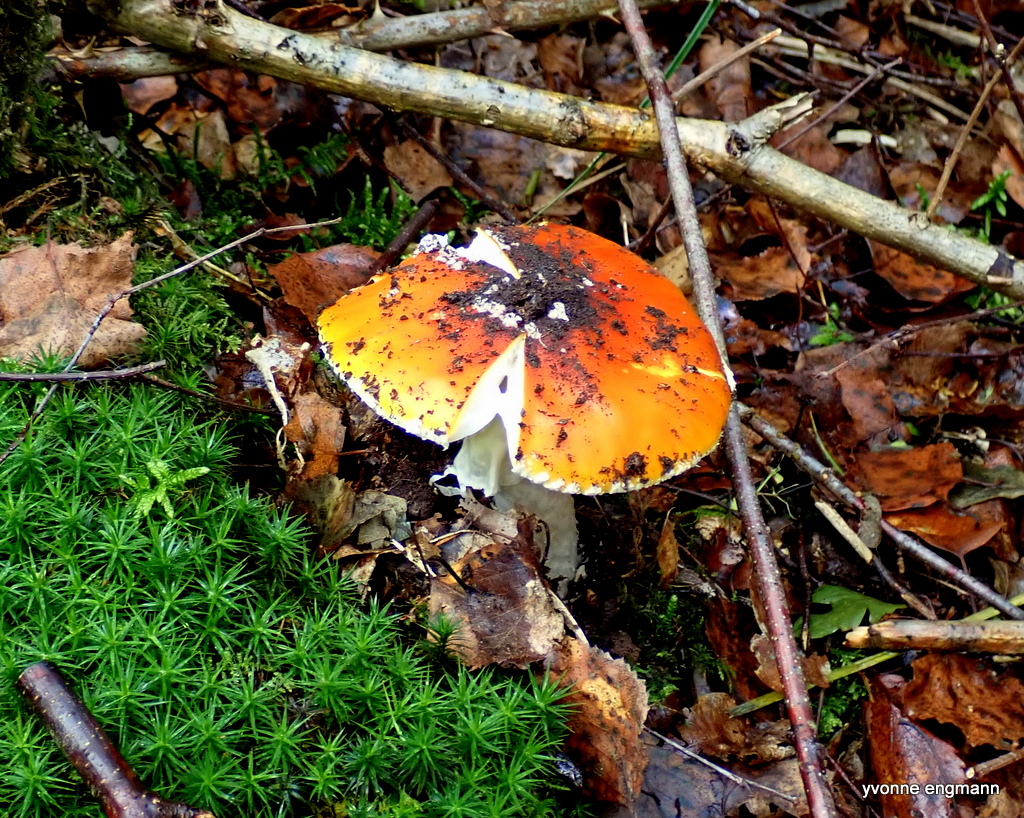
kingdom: Fungi
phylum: Basidiomycota
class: Agaricomycetes
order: Agaricales
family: Amanitaceae
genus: Amanita
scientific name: Amanita muscaria
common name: rød fluesvamp
